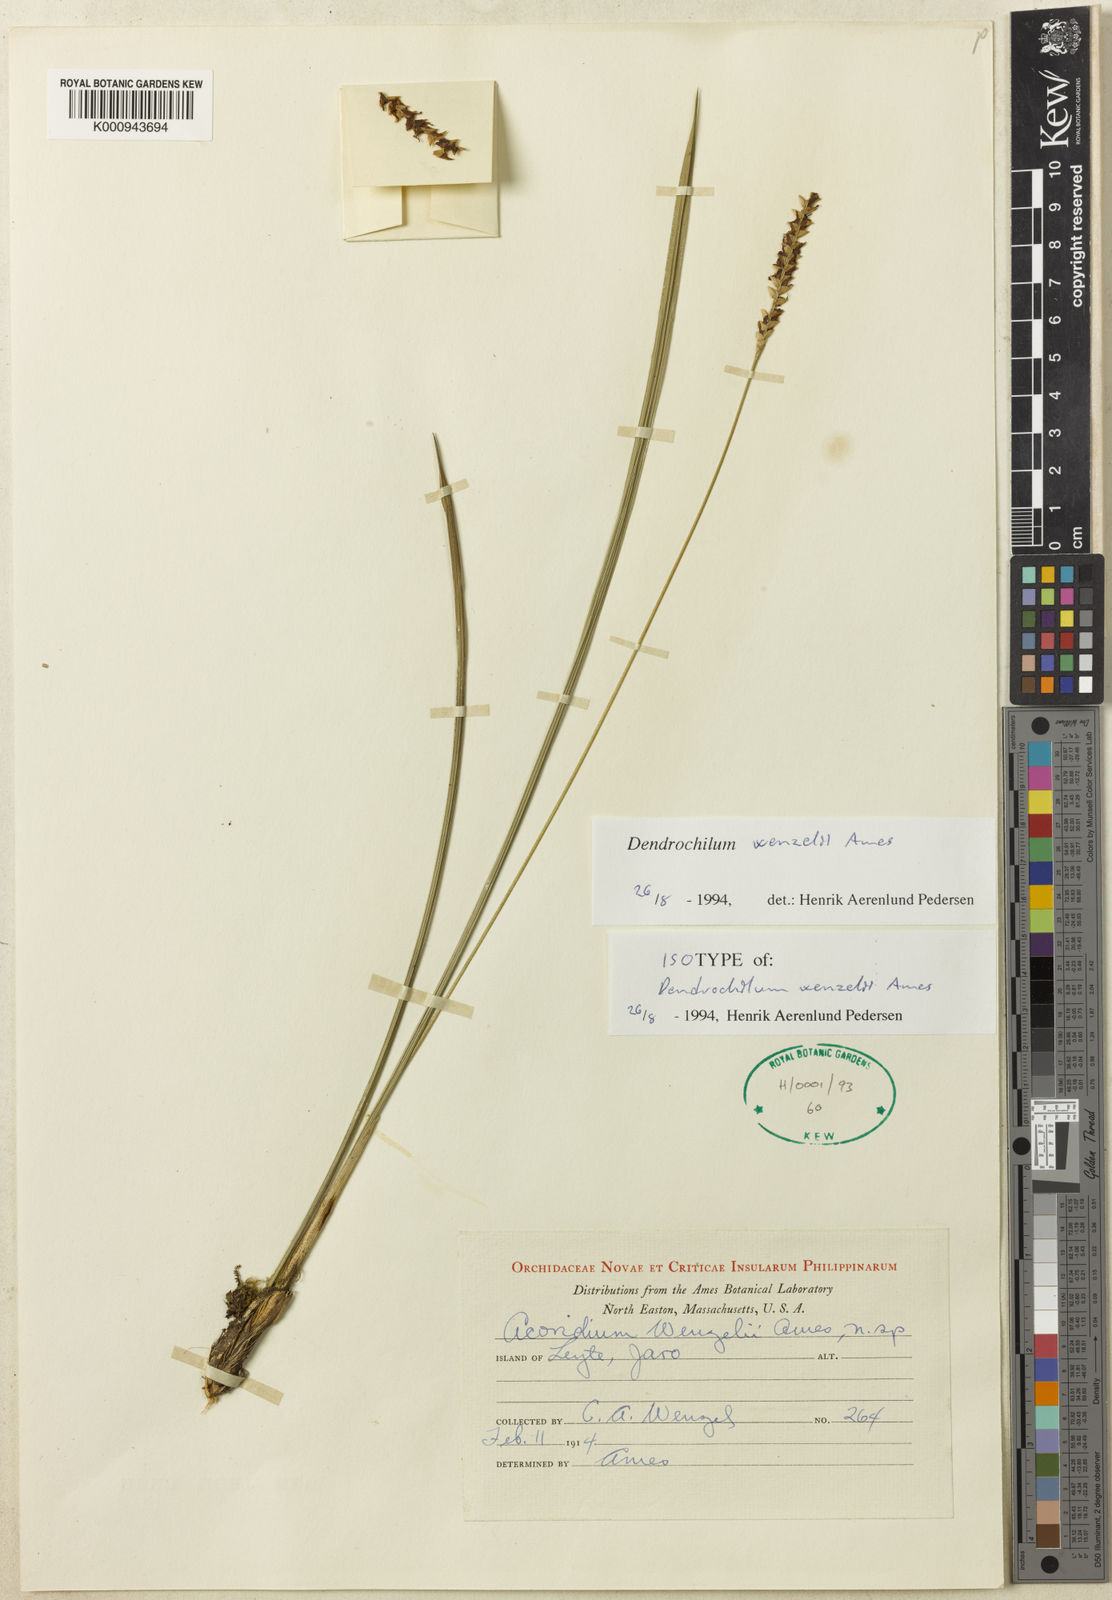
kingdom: Plantae
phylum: Tracheophyta
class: Liliopsida
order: Asparagales
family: Orchidaceae
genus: Coelogyne
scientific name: Coelogyne wenzelii
